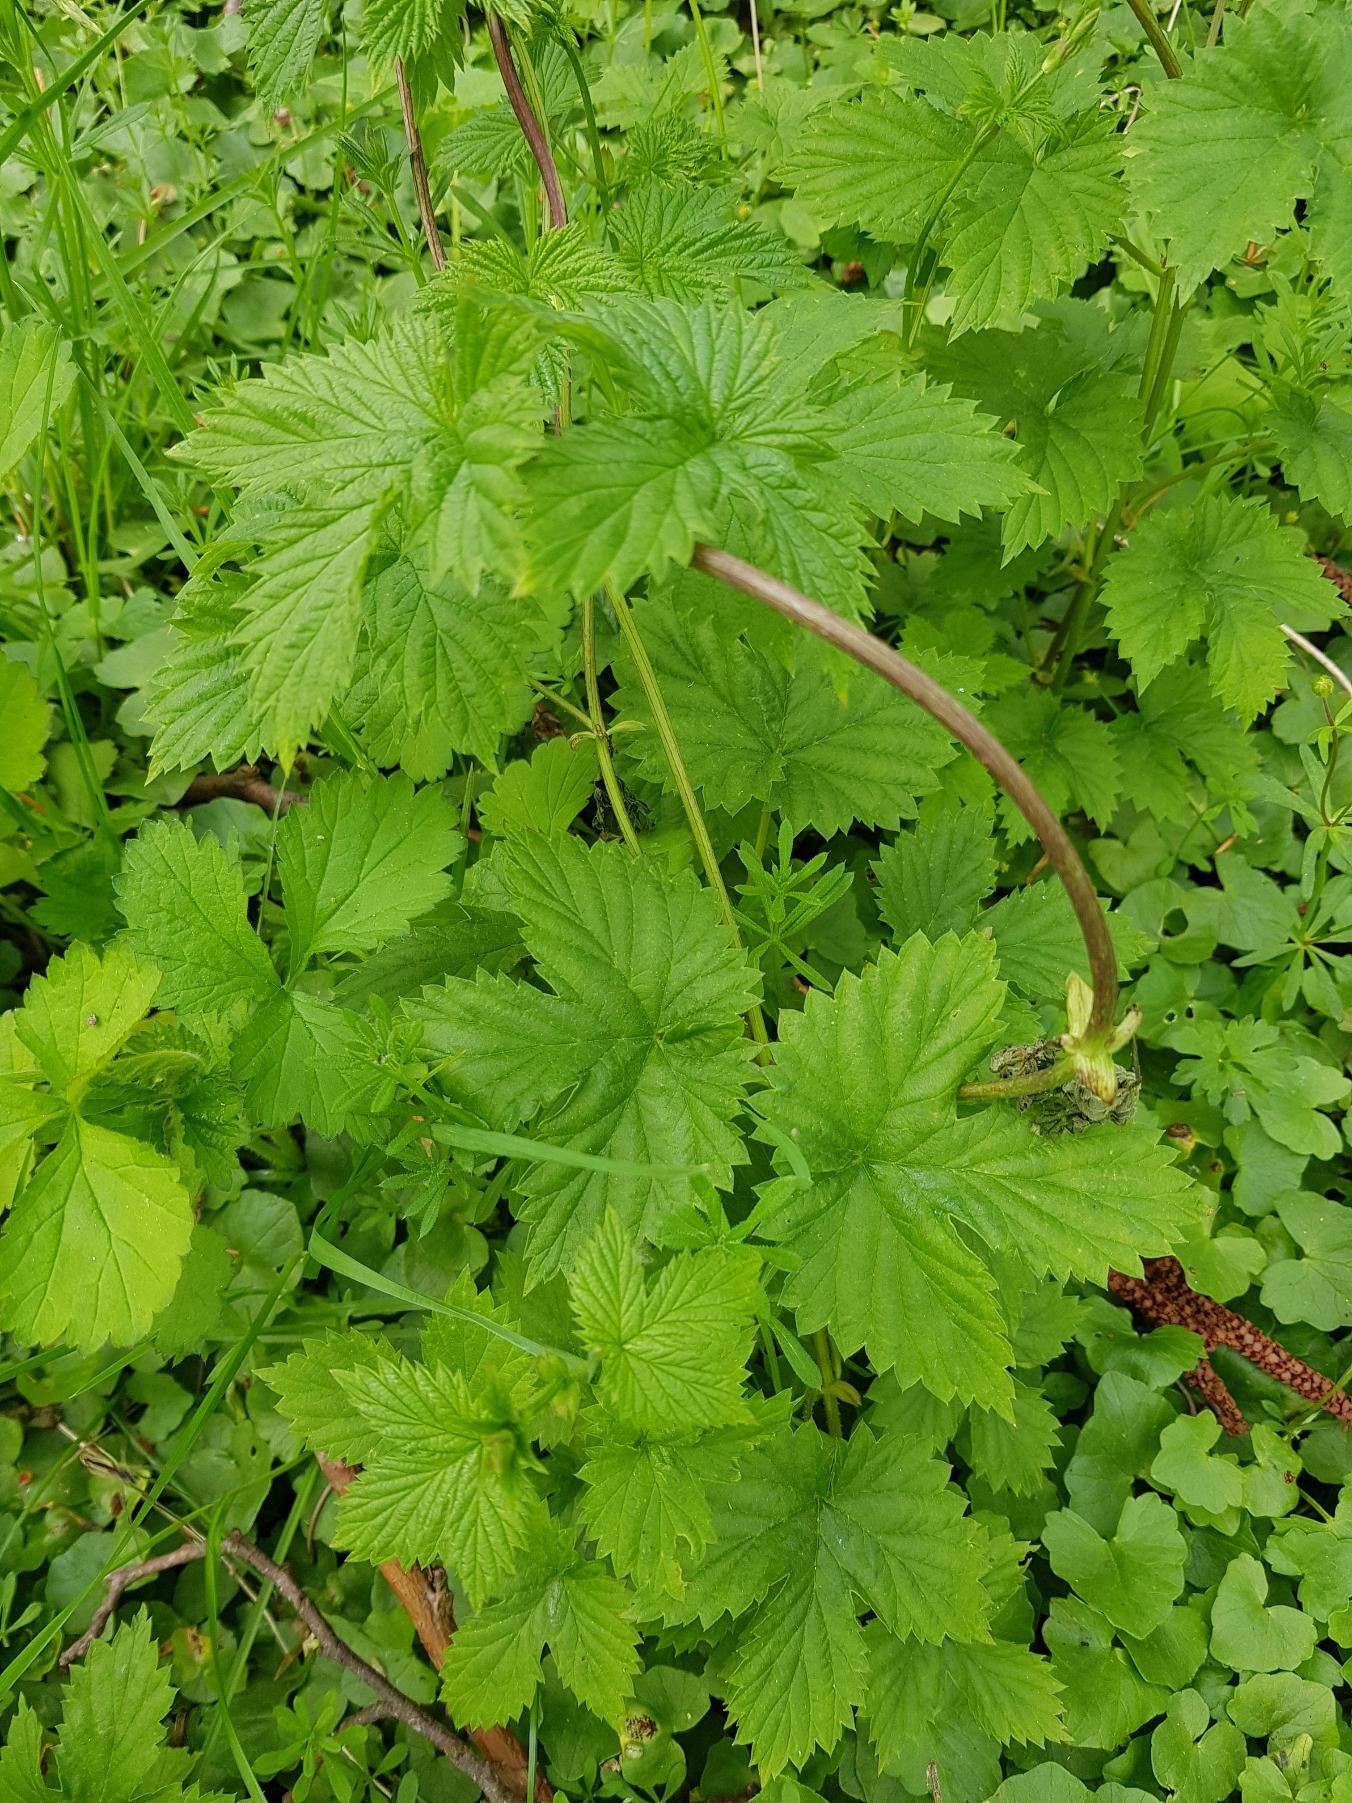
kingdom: Plantae
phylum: Tracheophyta
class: Magnoliopsida
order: Rosales
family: Cannabaceae
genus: Humulus
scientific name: Humulus lupulus
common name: Humle
